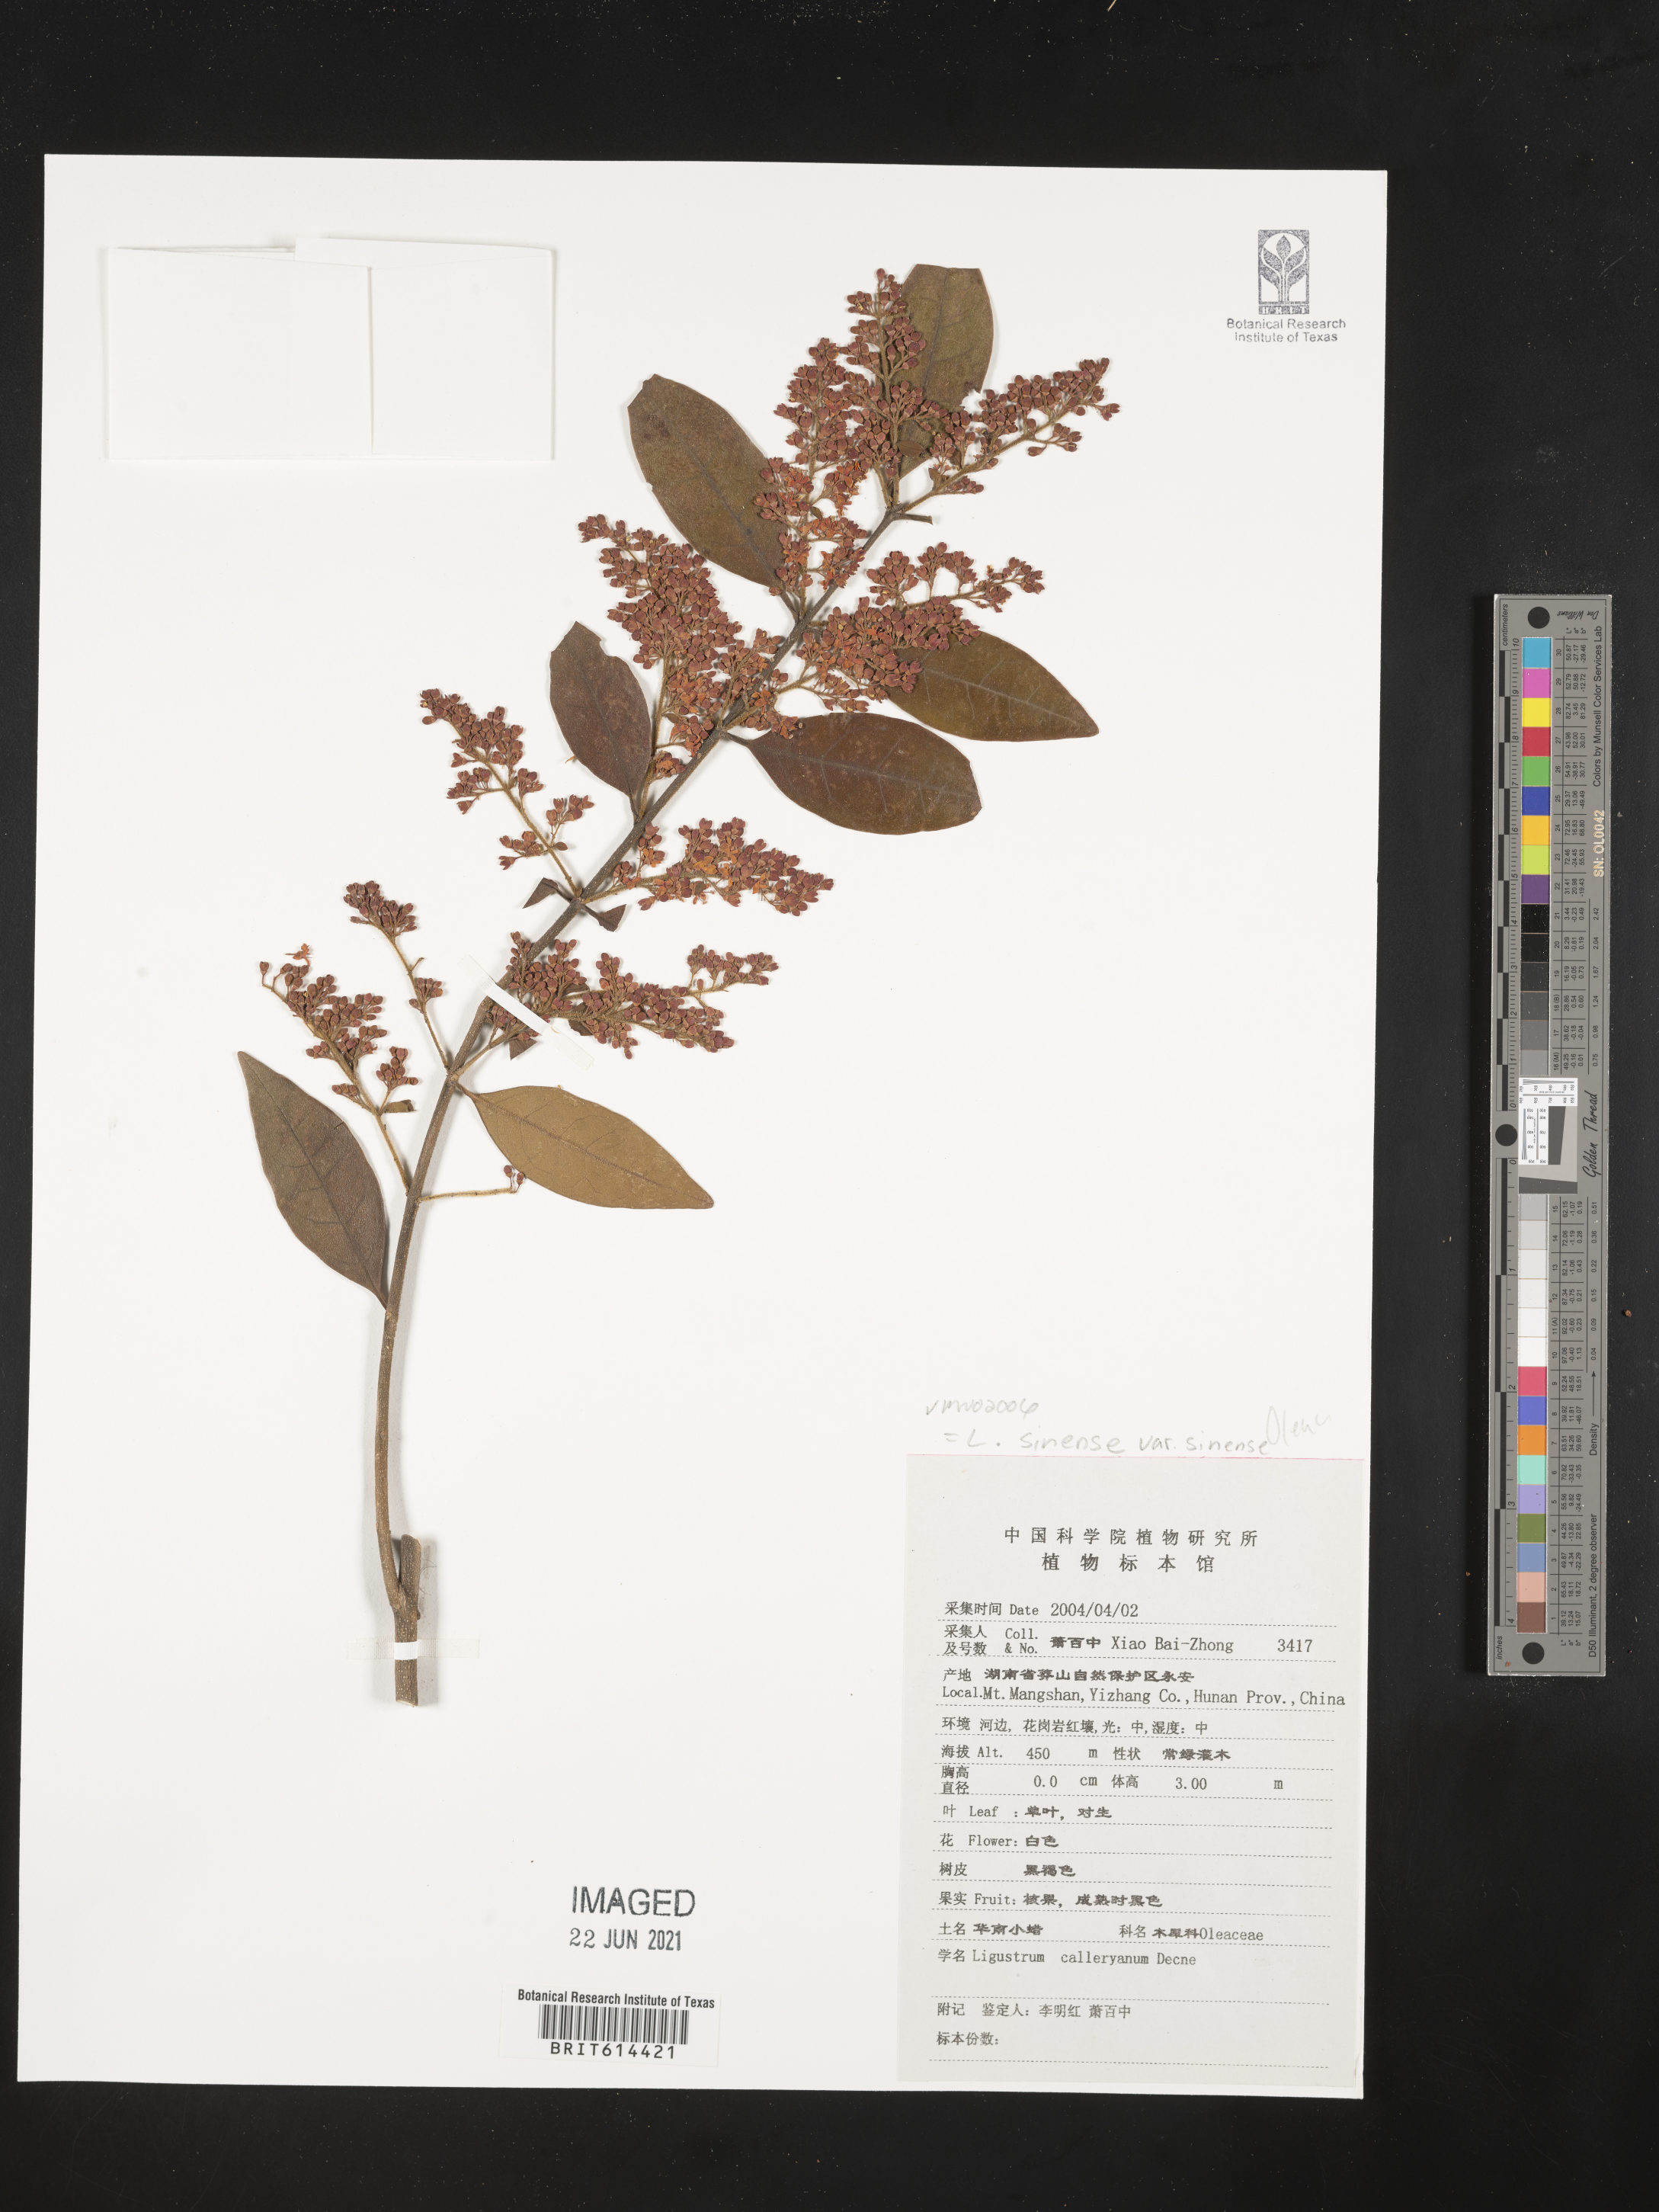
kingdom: Plantae
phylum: Tracheophyta
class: Magnoliopsida
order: Lamiales
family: Oleaceae
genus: Ligustrum
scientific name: Ligustrum sinense
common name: Chinese privet
